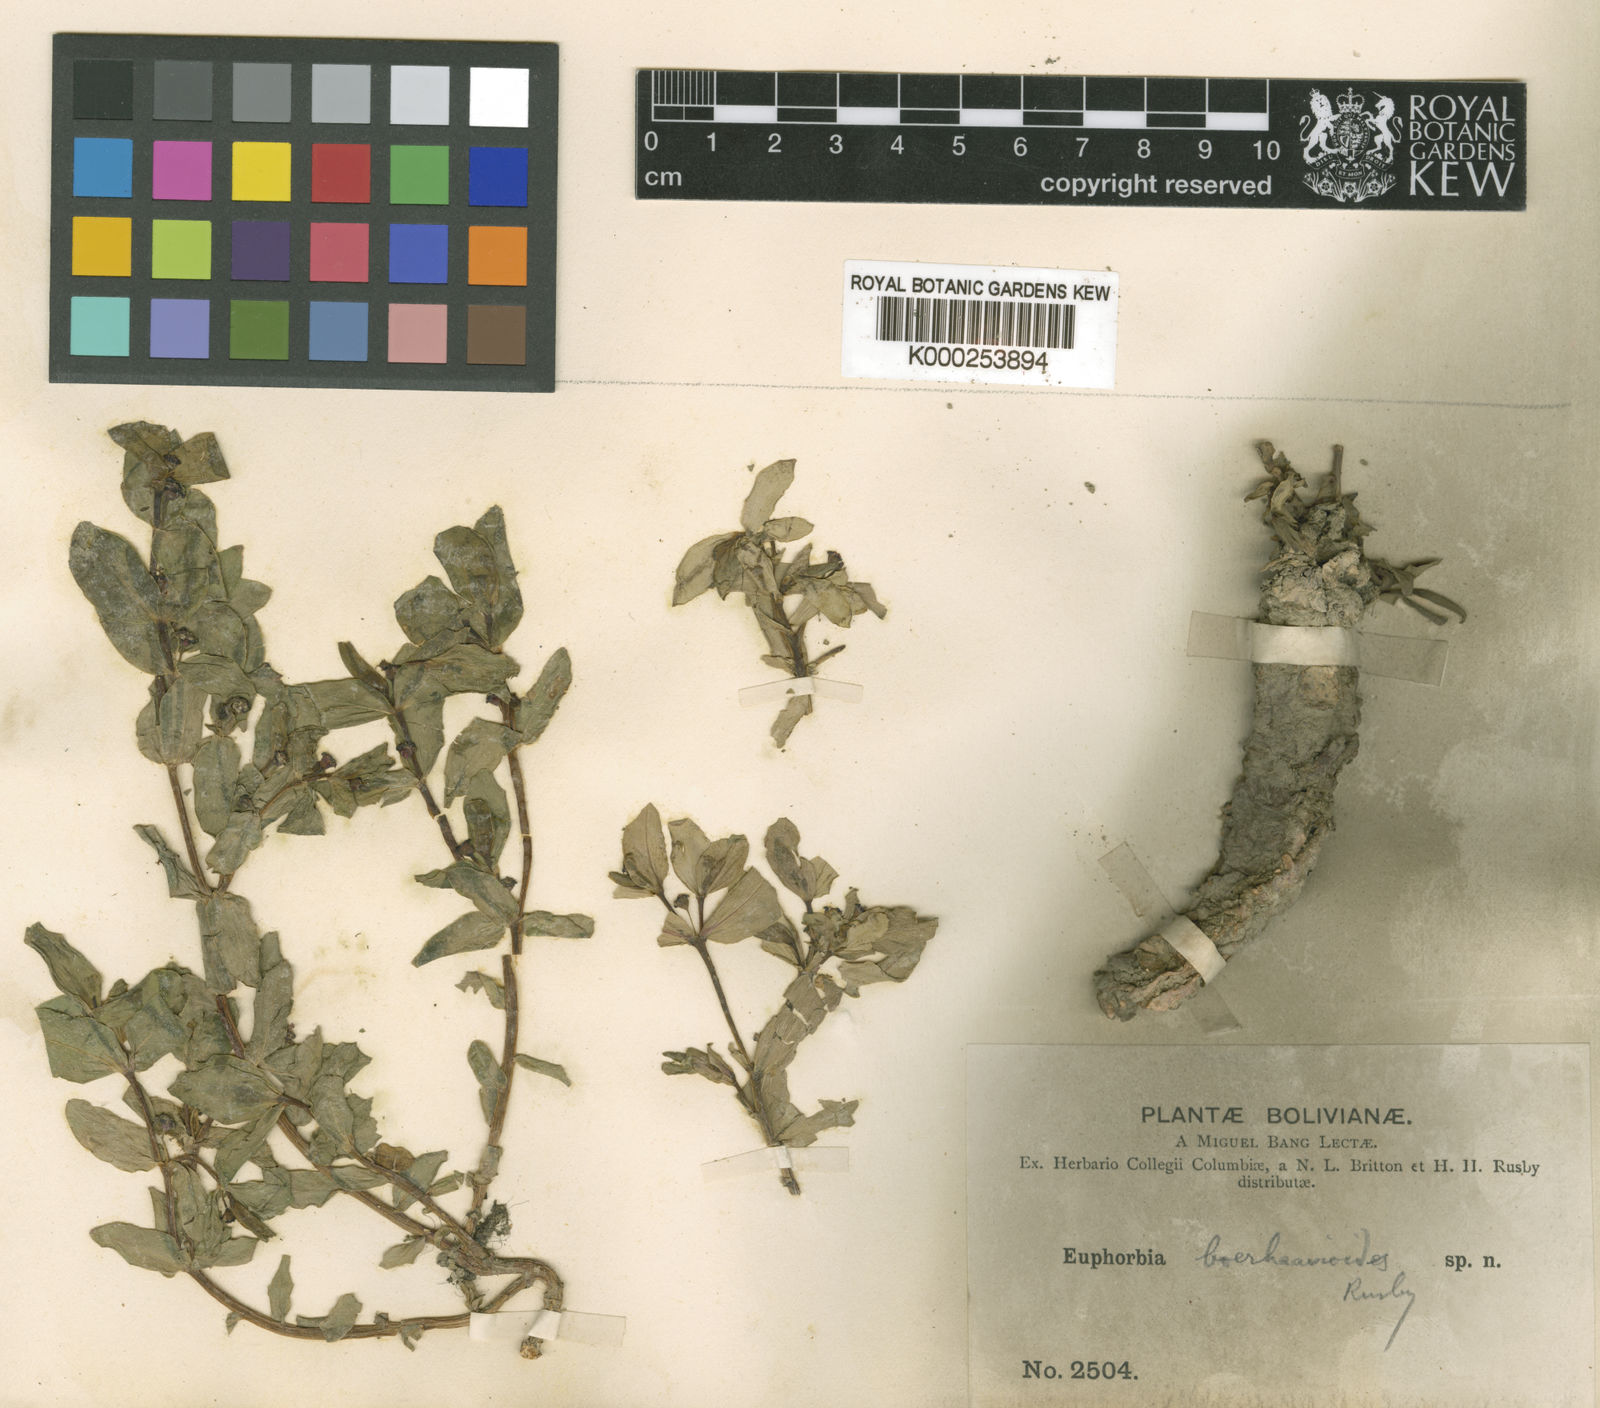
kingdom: Plantae
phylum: Tracheophyta
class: Magnoliopsida
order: Malpighiales
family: Euphorbiaceae
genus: Euphorbia
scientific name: Euphorbia boerhaavioides
